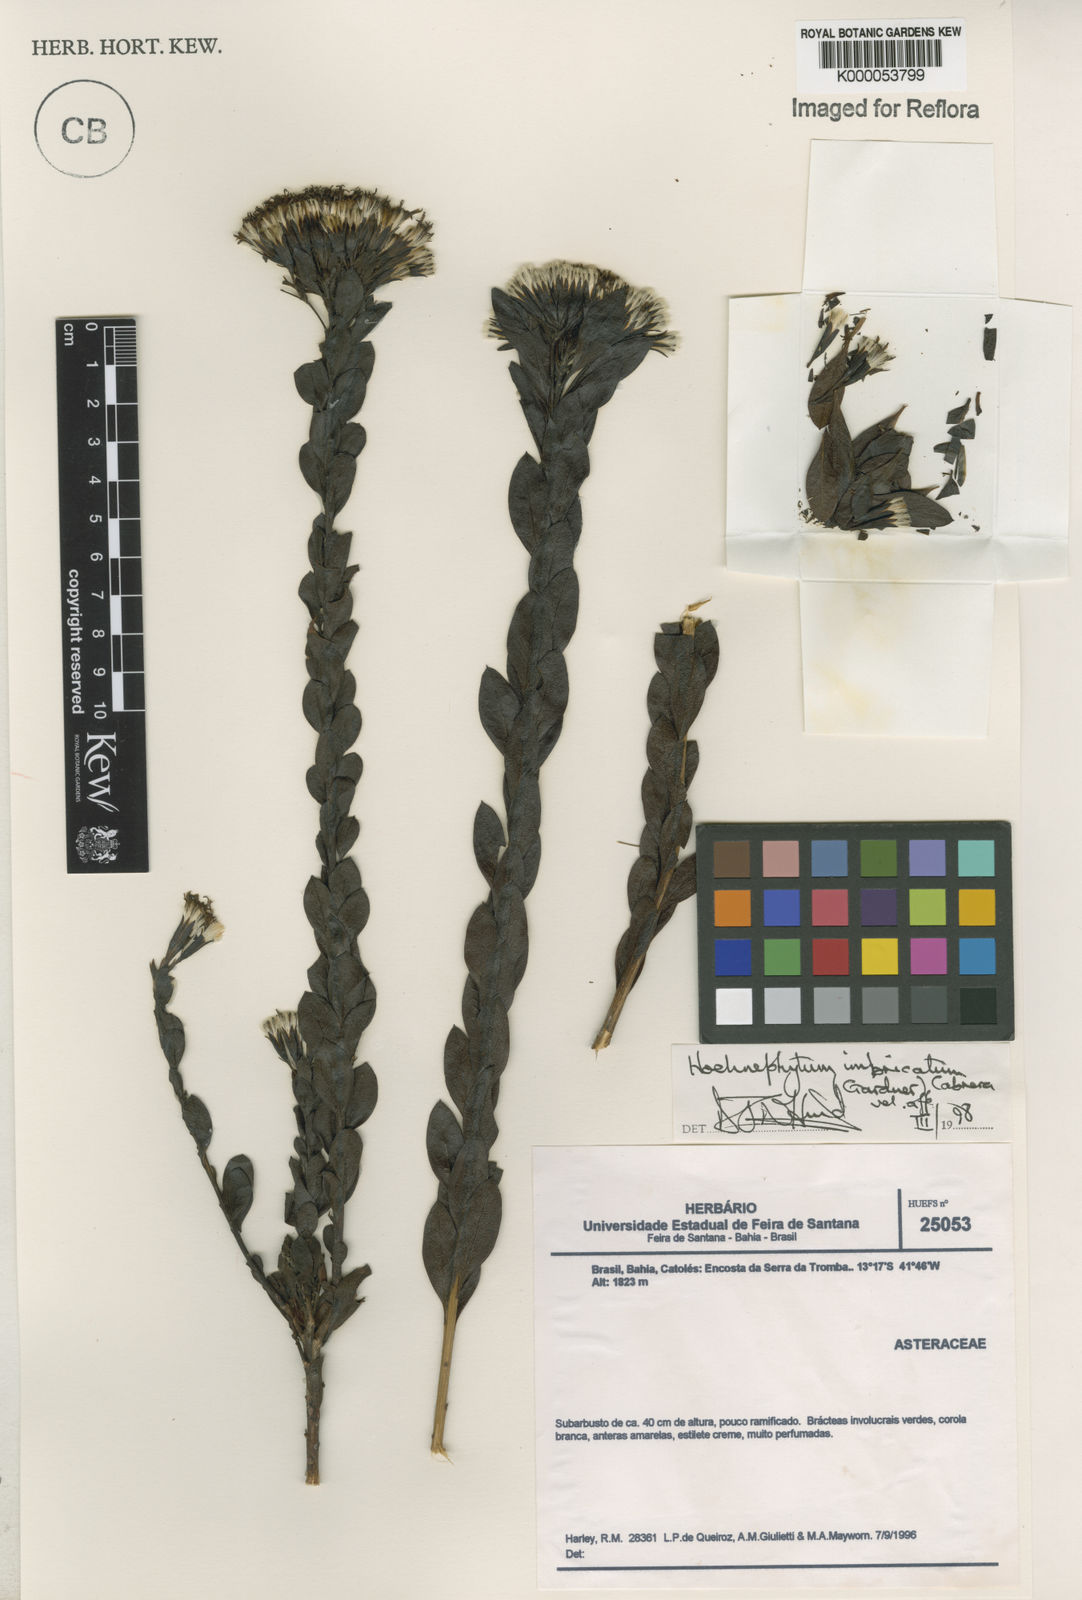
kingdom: Plantae
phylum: Tracheophyta
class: Magnoliopsida
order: Asterales
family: Asteraceae
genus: Hoehnephytum
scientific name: Hoehnephytum imbricatum
